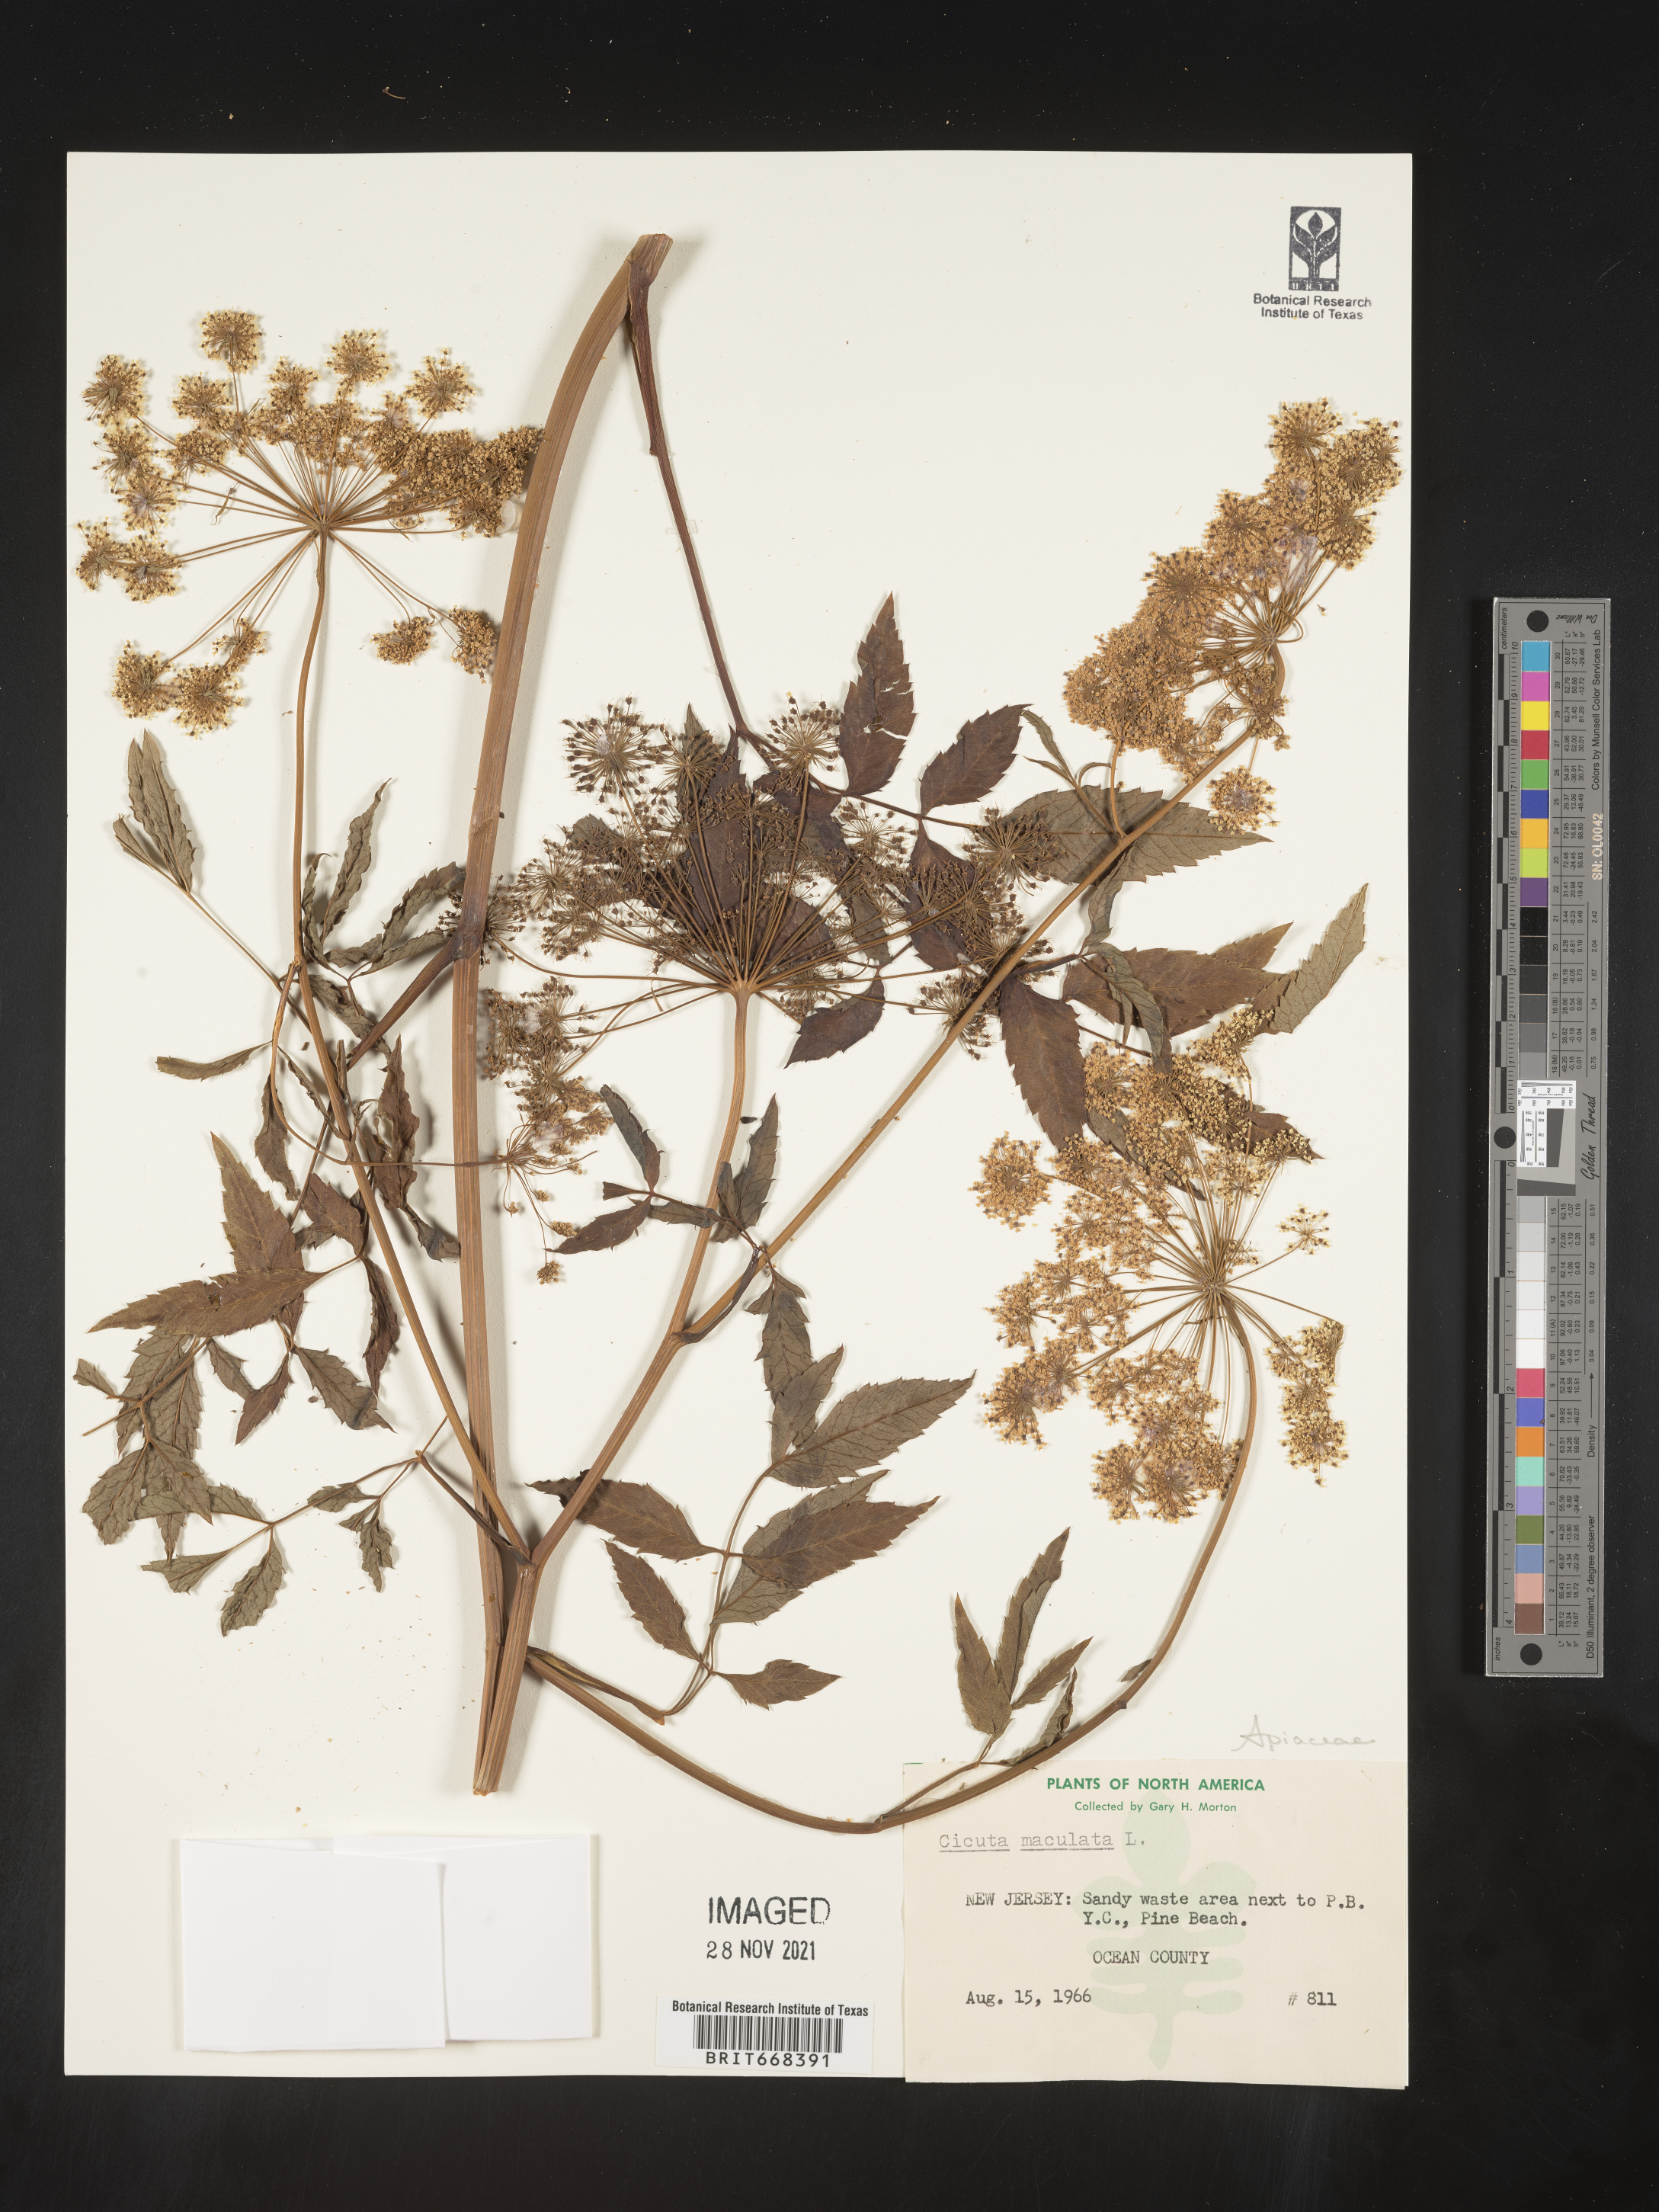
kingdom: Plantae
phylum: Tracheophyta
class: Magnoliopsida
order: Apiales
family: Apiaceae
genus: Cicuta
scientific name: Cicuta maculata
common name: Spotted cowbane
